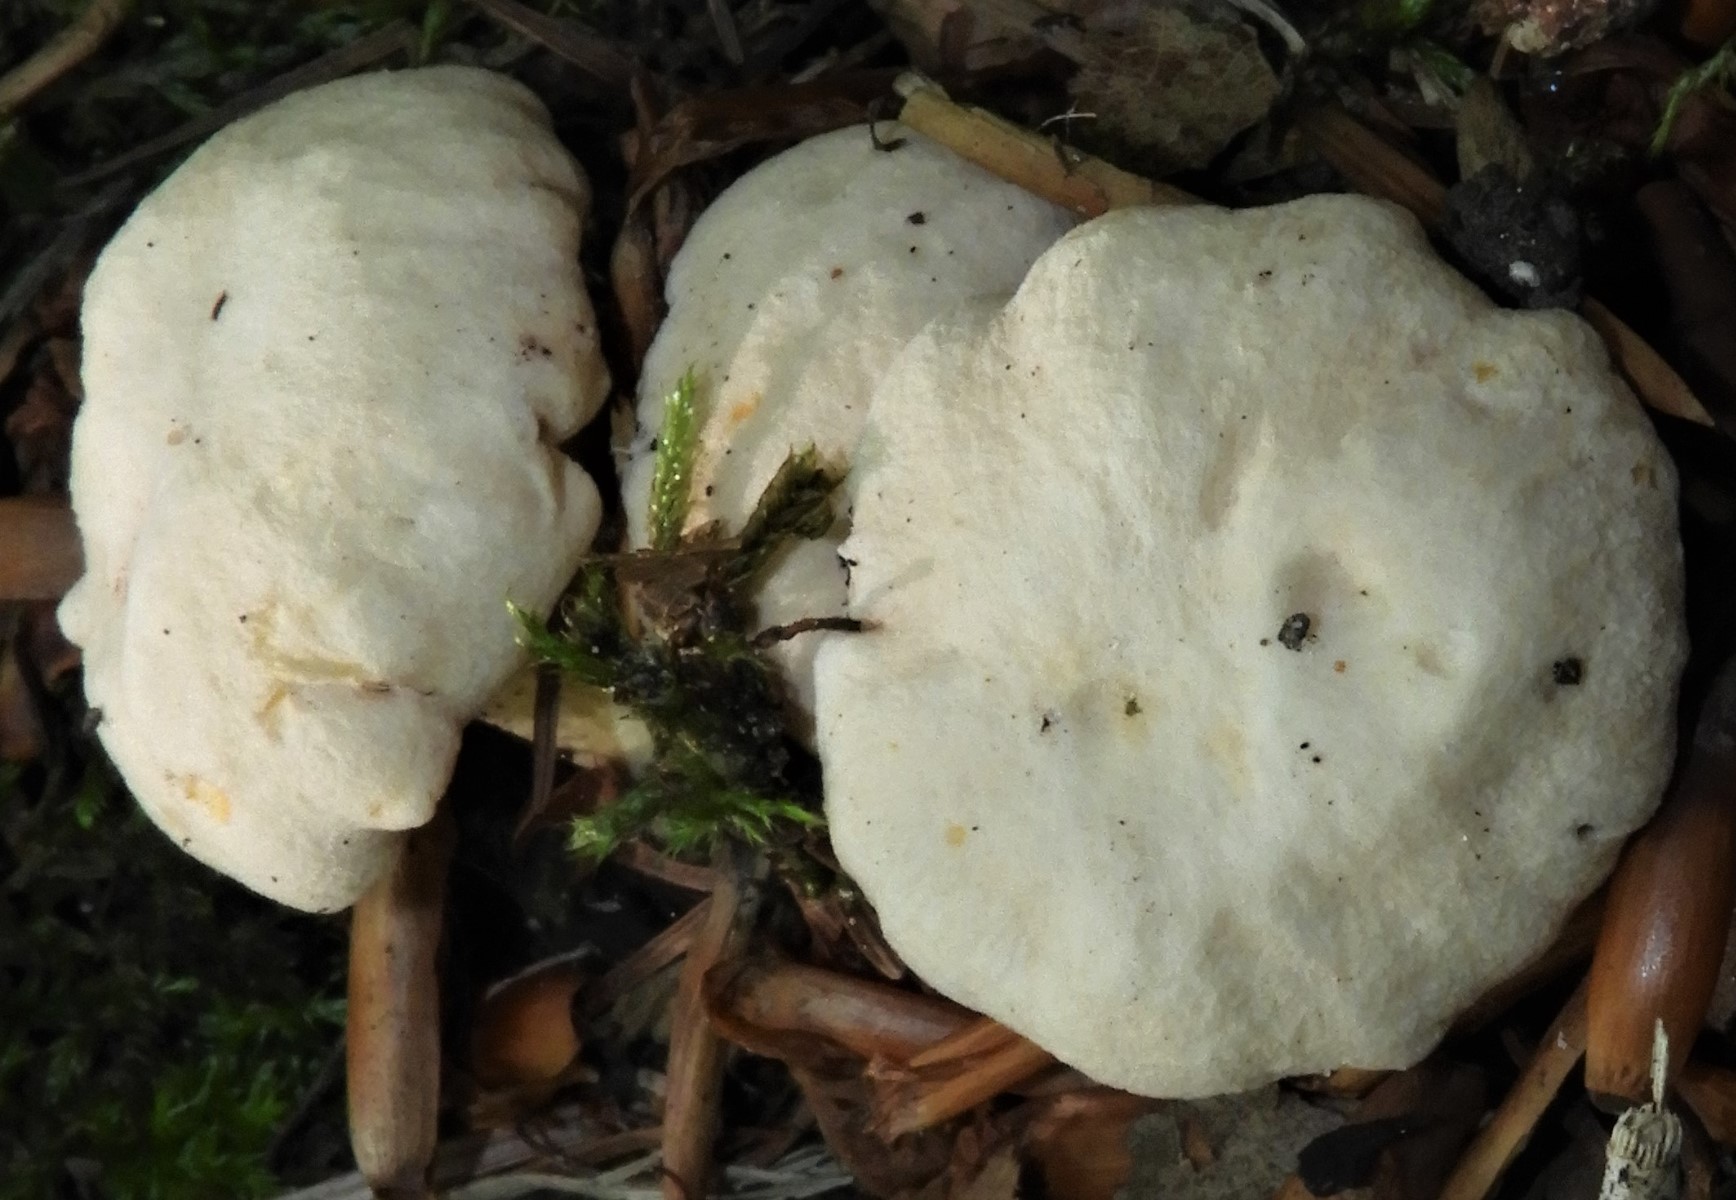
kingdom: Fungi
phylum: Basidiomycota
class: Agaricomycetes
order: Cantharellales
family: Hydnaceae
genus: Cantharellus
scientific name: Cantharellus pallens
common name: bleg kantarel
